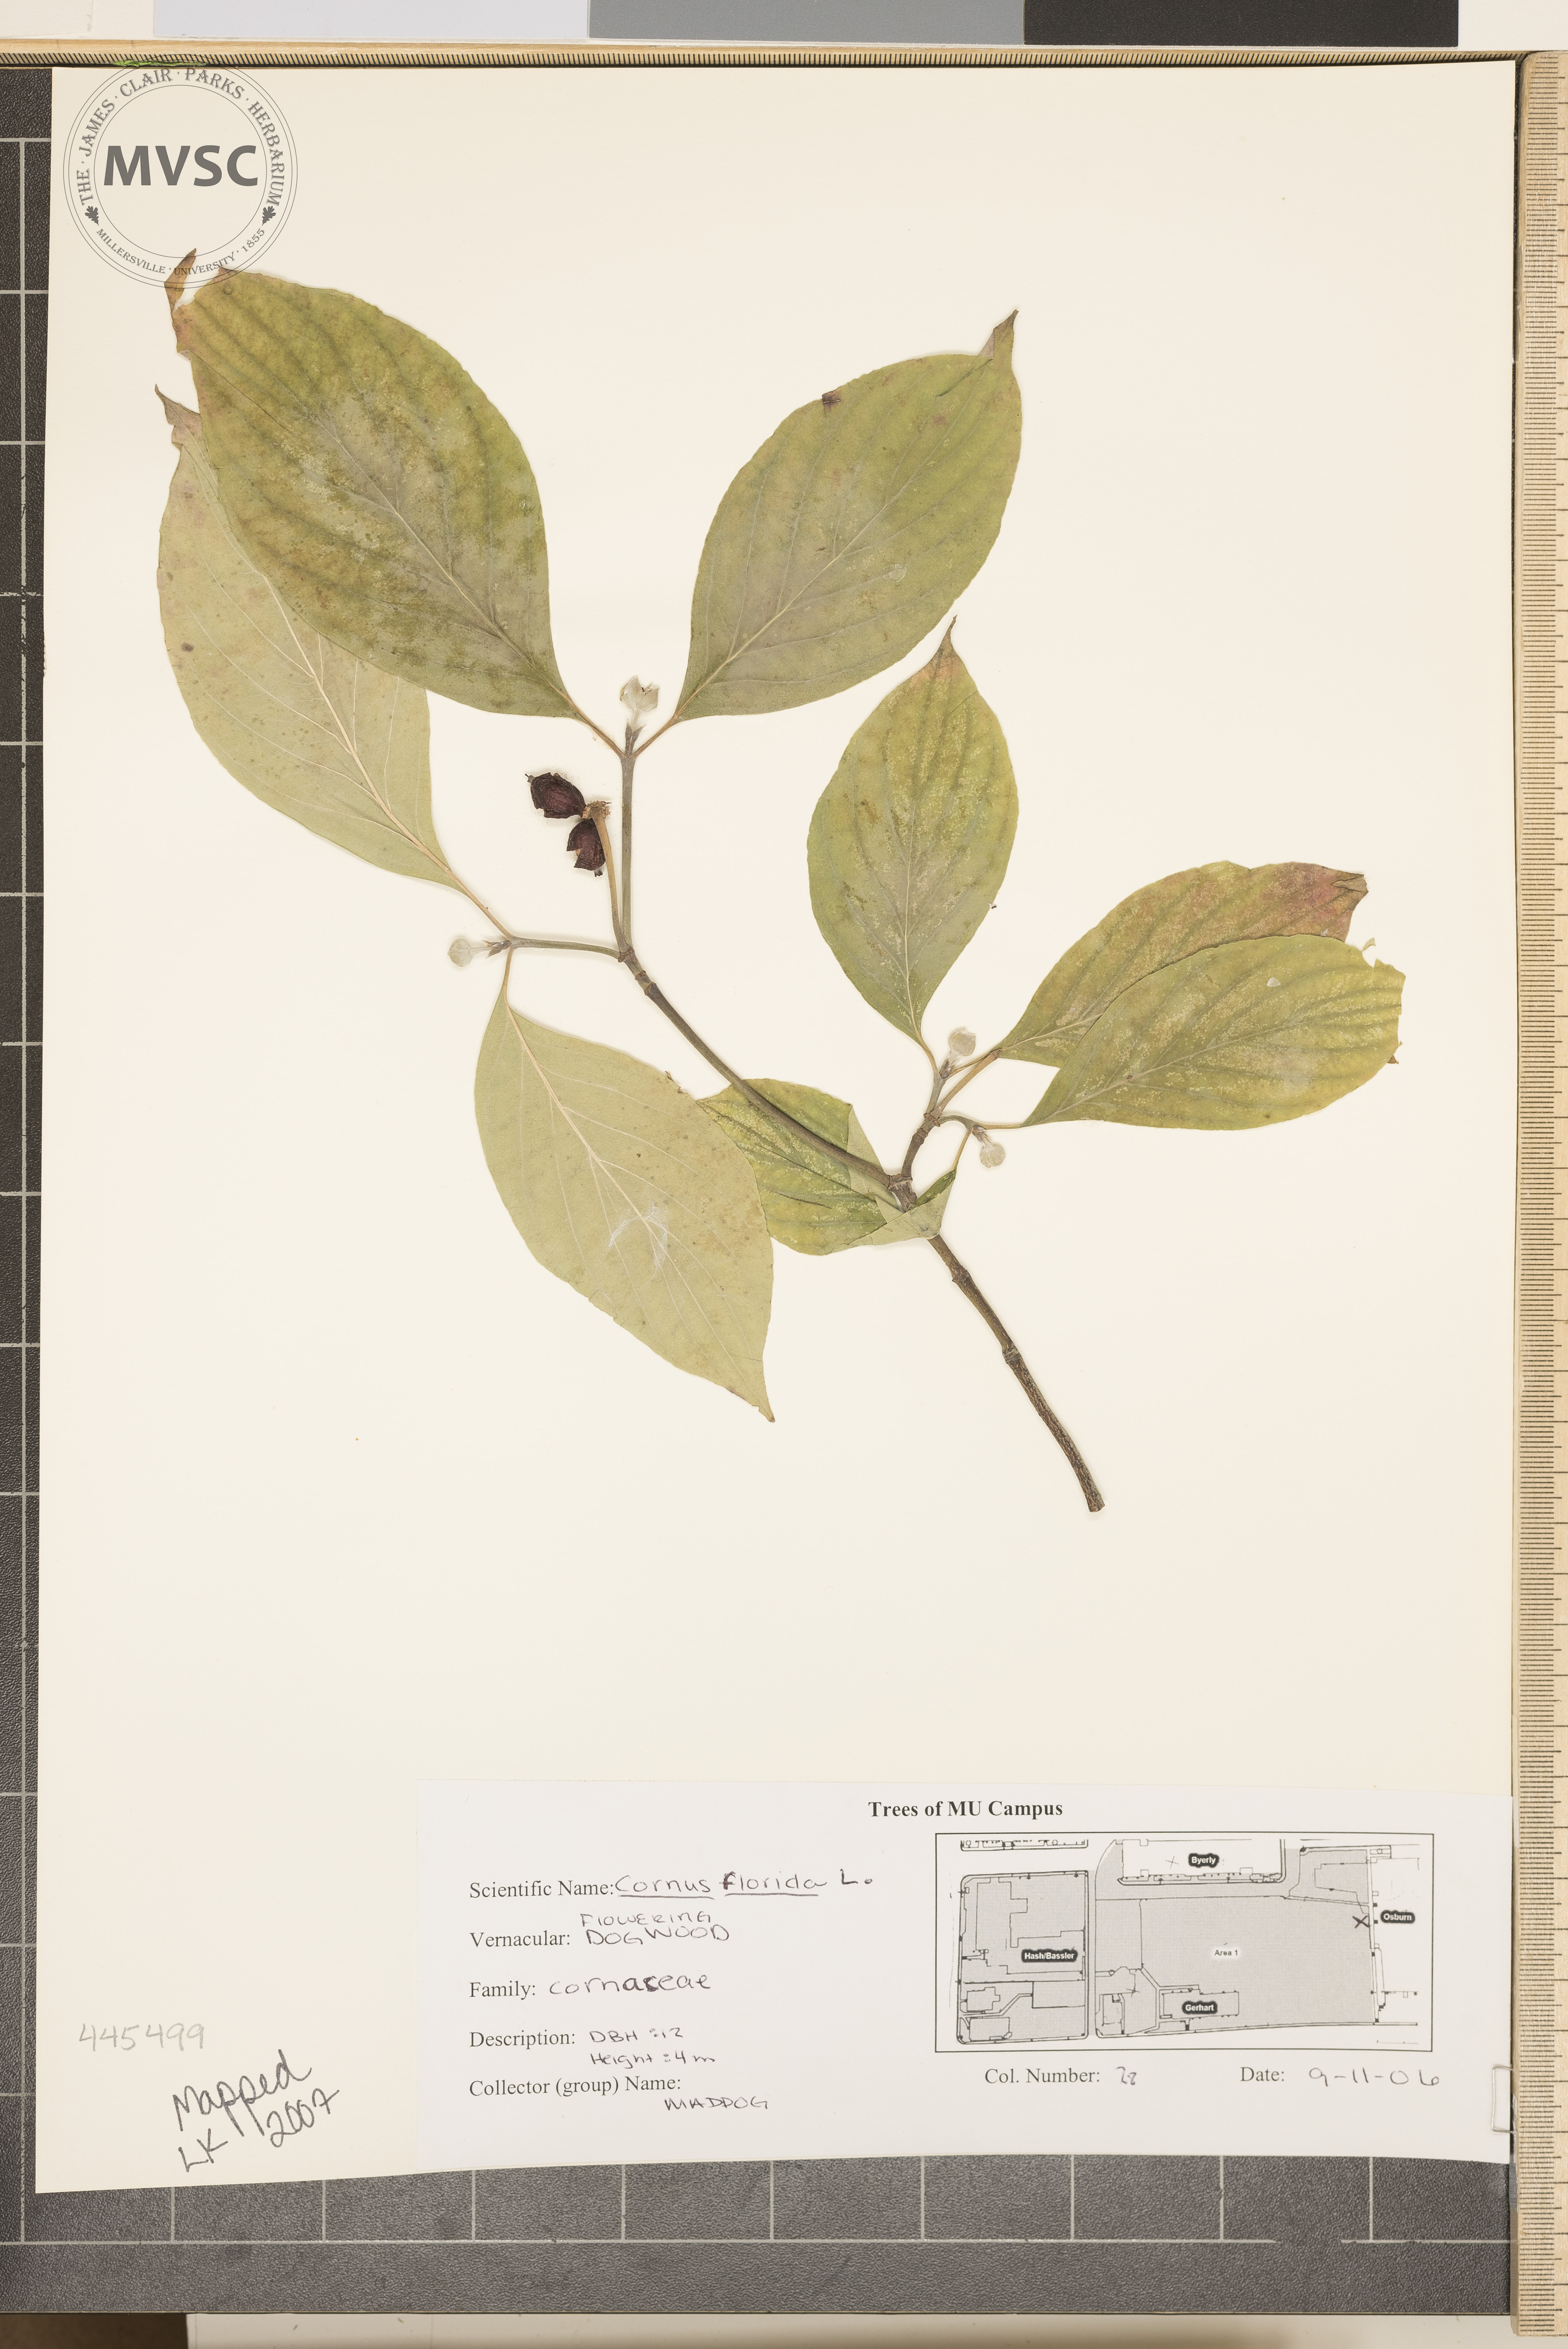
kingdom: Plantae
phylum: Tracheophyta
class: Magnoliopsida
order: Cornales
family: Cornaceae
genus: Cornus
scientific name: Cornus florida
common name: Flowering Dogwood
